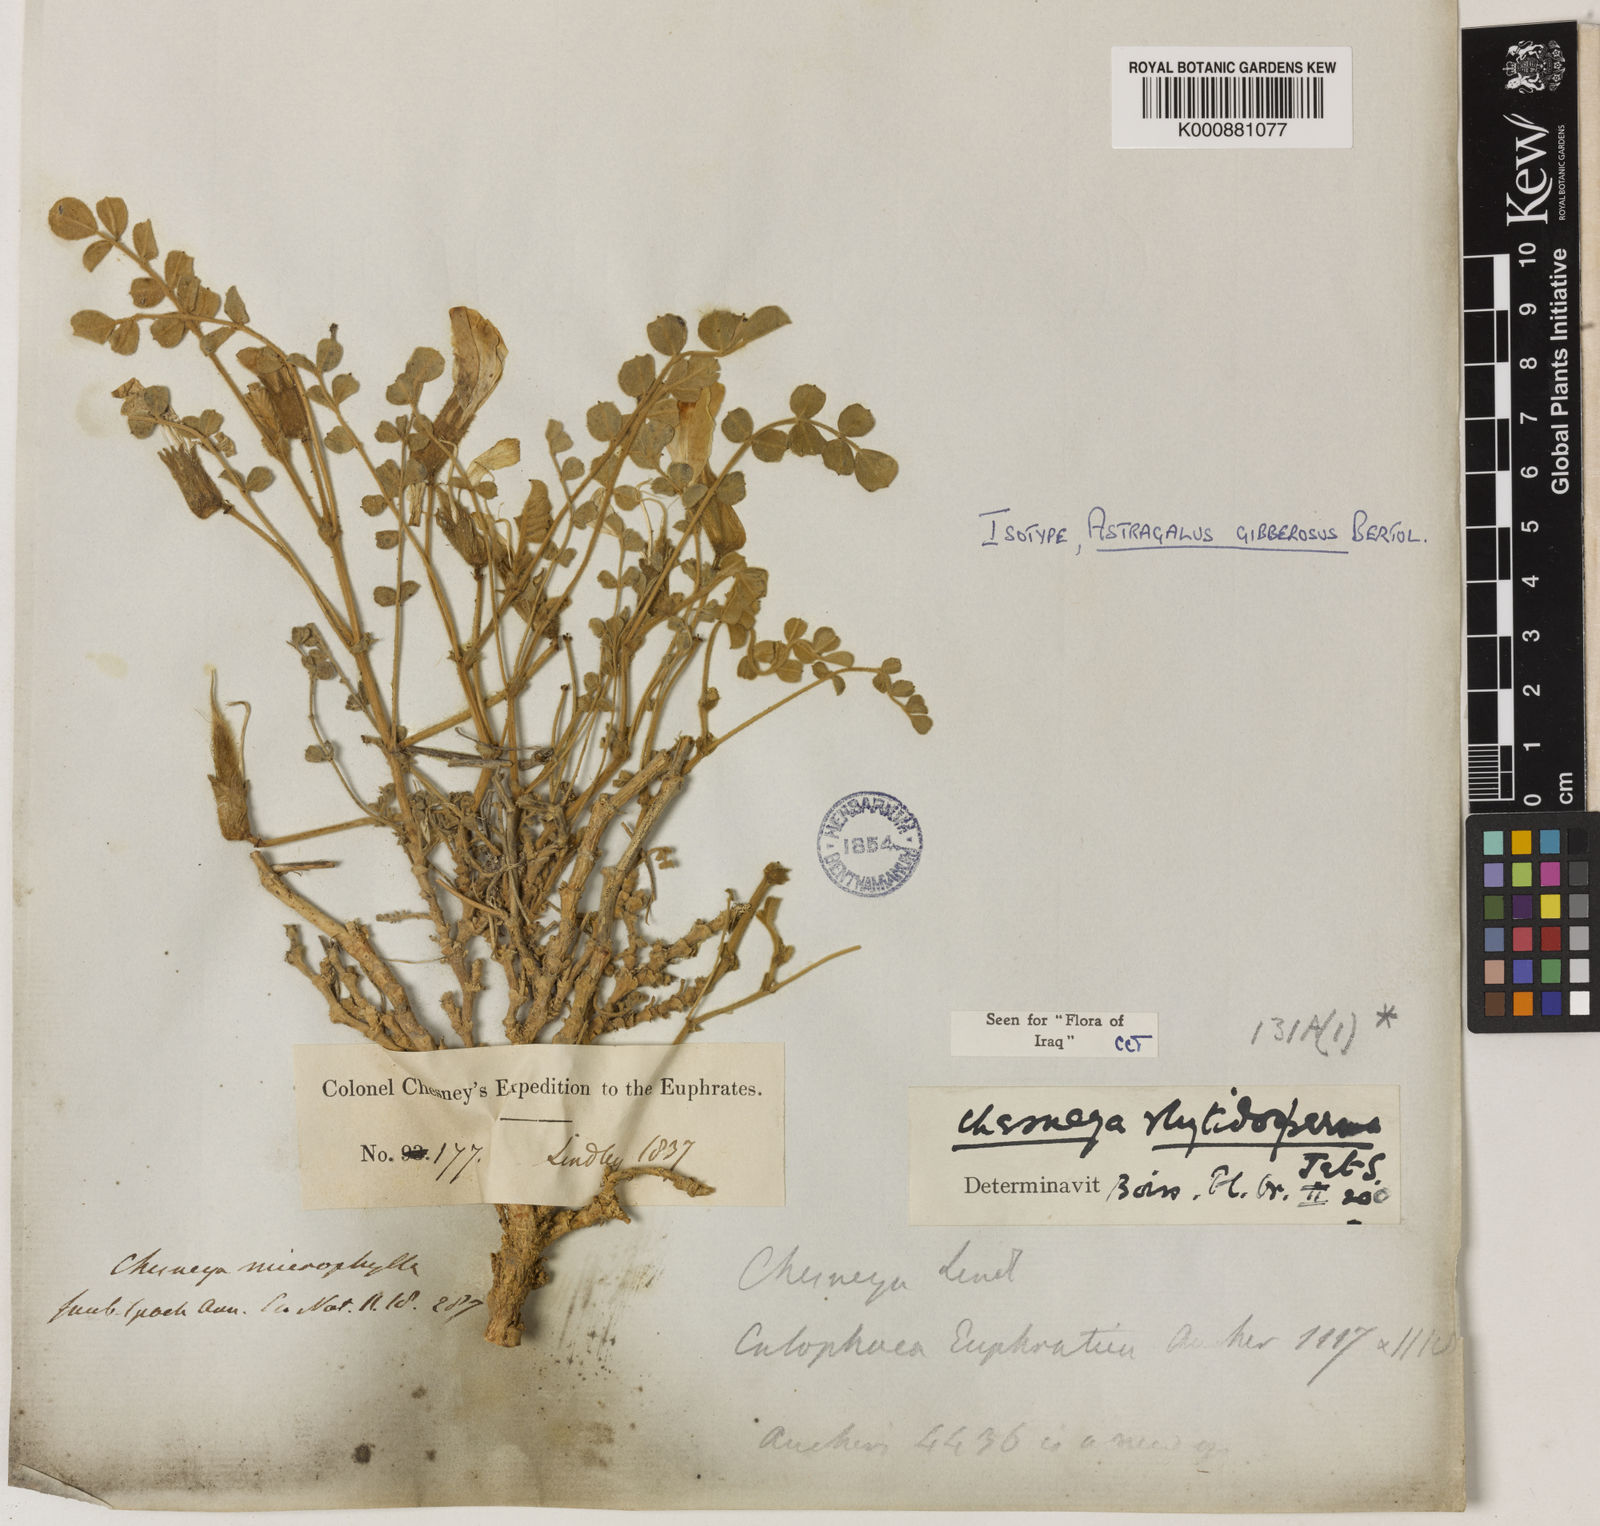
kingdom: Plantae
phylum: Tracheophyta
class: Magnoliopsida
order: Fabales
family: Fabaceae
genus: Chesneya
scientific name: Chesneya rytidosperma
